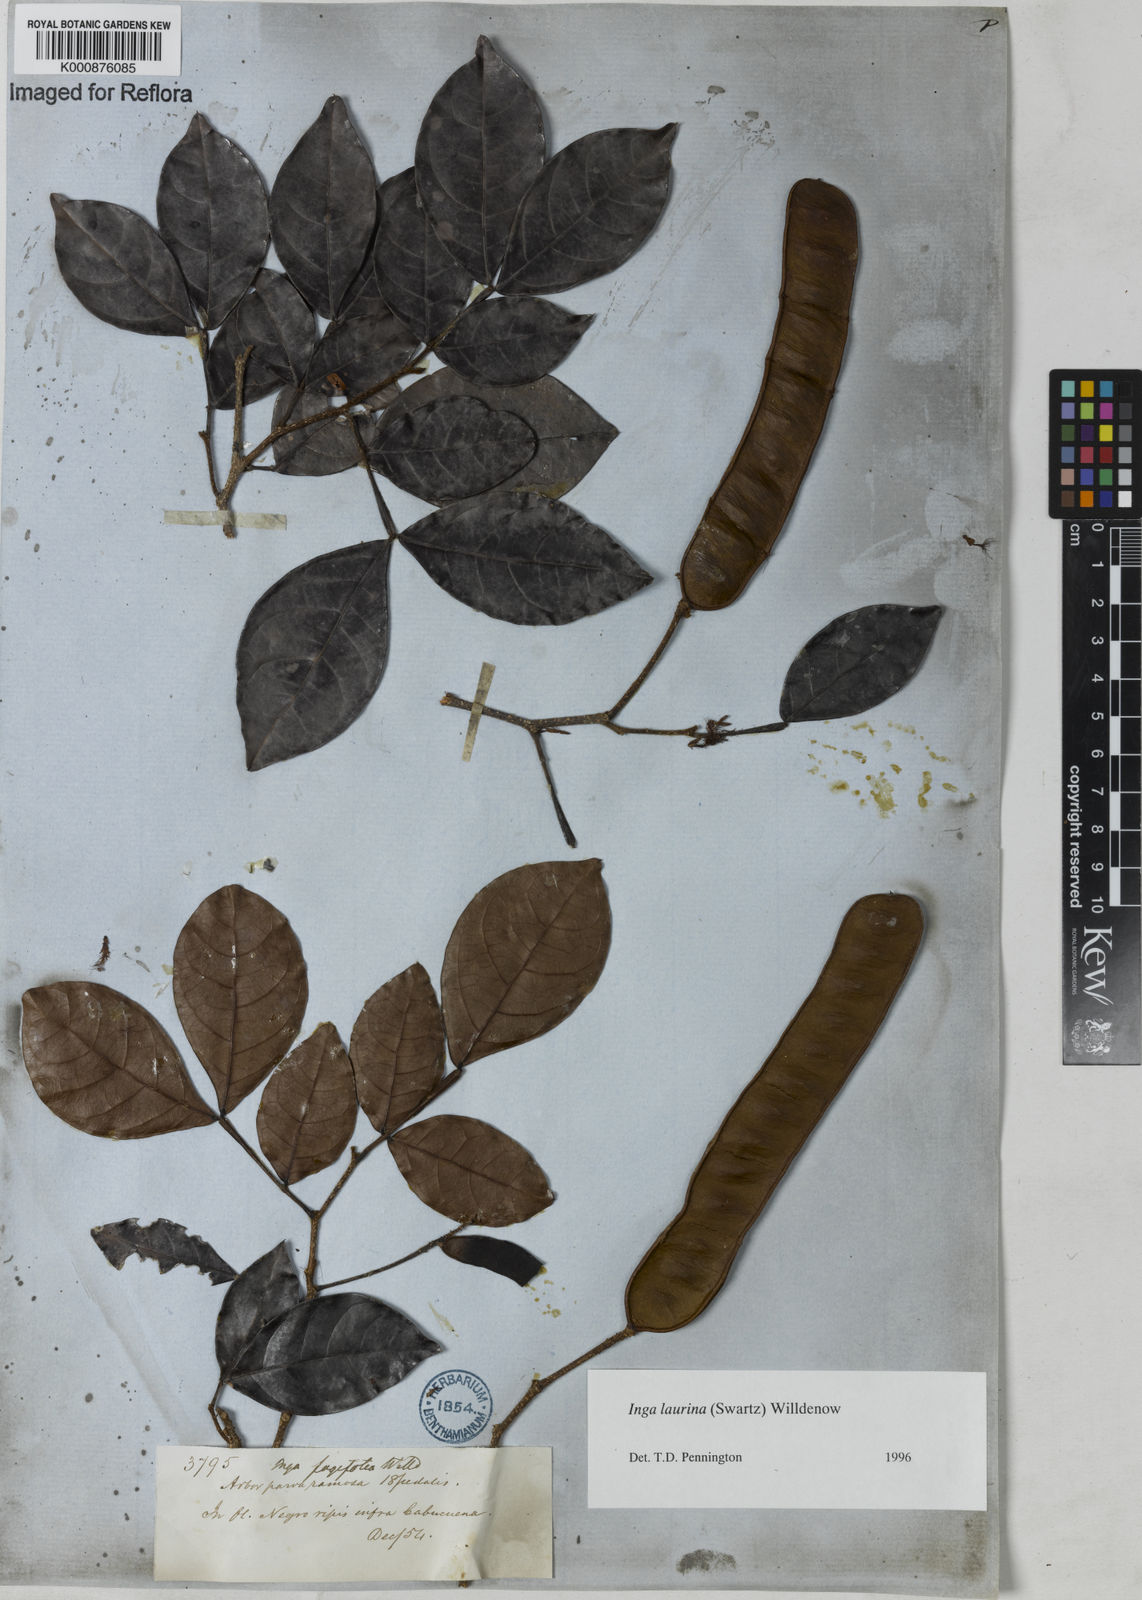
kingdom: Plantae
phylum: Tracheophyta
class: Magnoliopsida
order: Fabales
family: Fabaceae
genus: Inga
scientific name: Inga laurina
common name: Red wood
